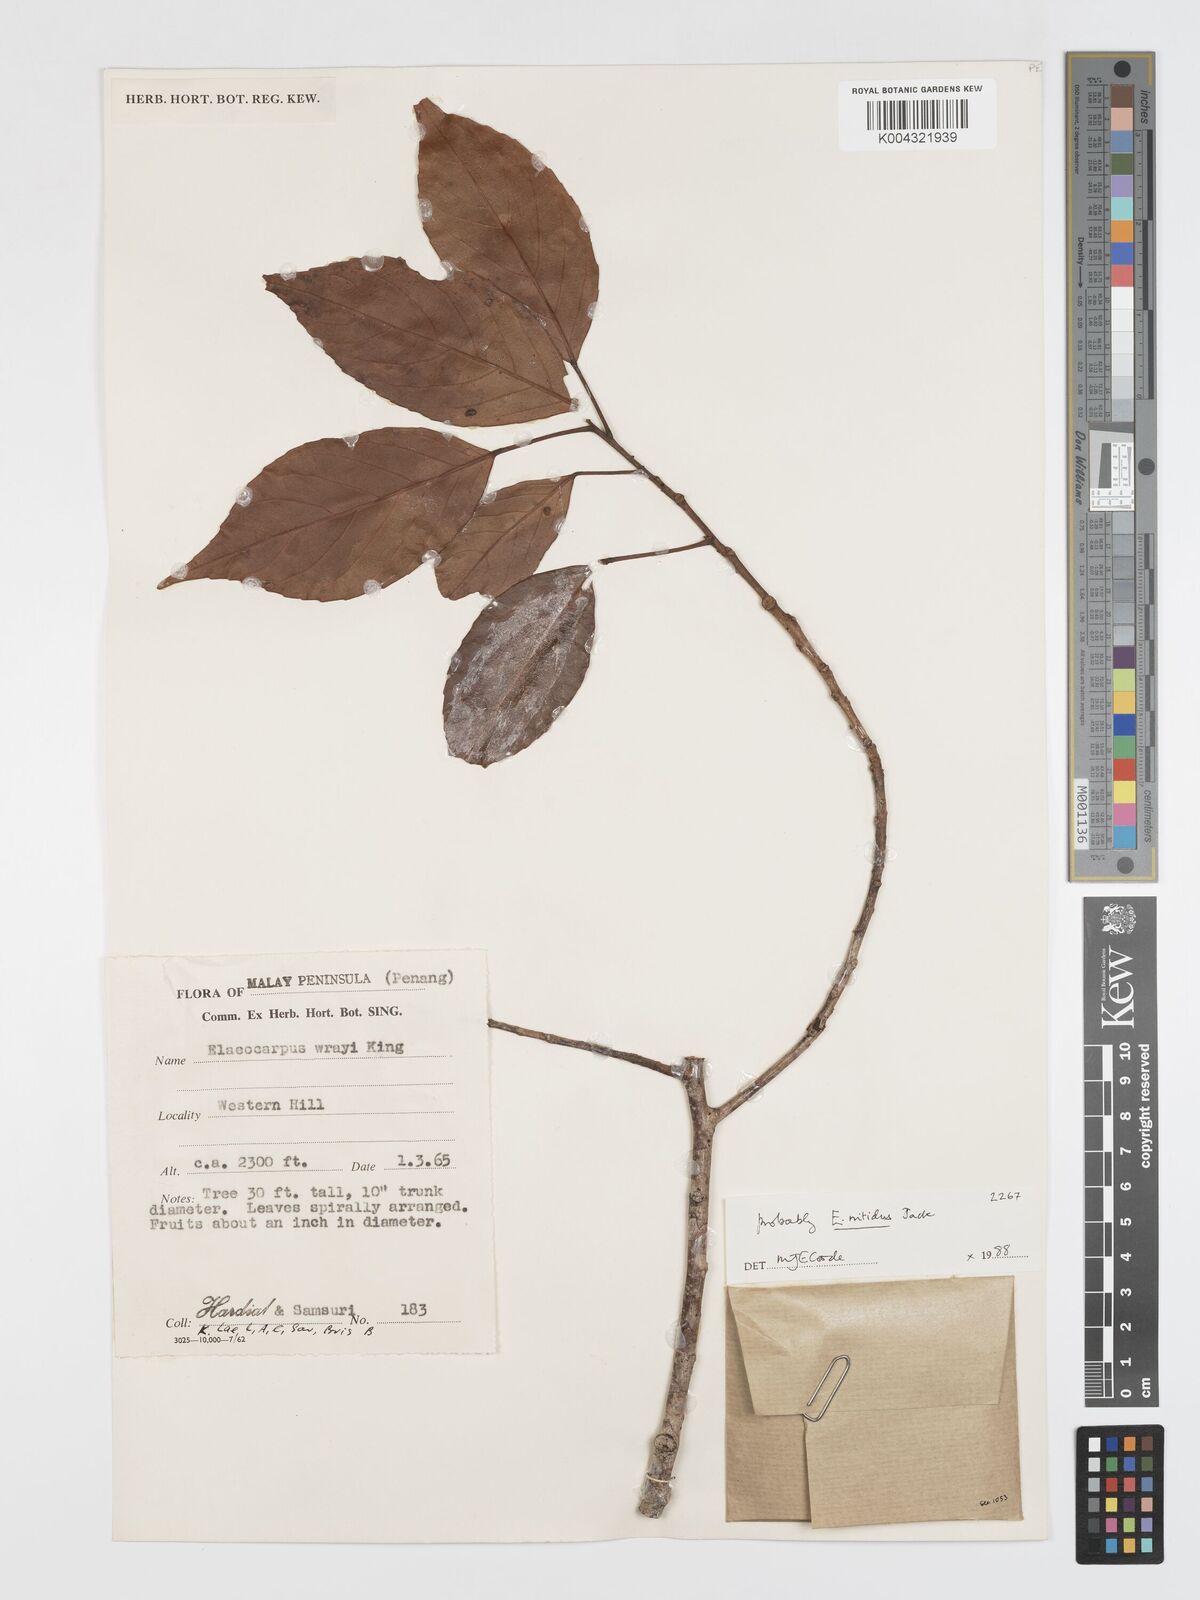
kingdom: Plantae
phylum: Tracheophyta
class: Magnoliopsida
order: Oxalidales
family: Elaeocarpaceae
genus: Elaeocarpus
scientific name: Elaeocarpus nitidus
